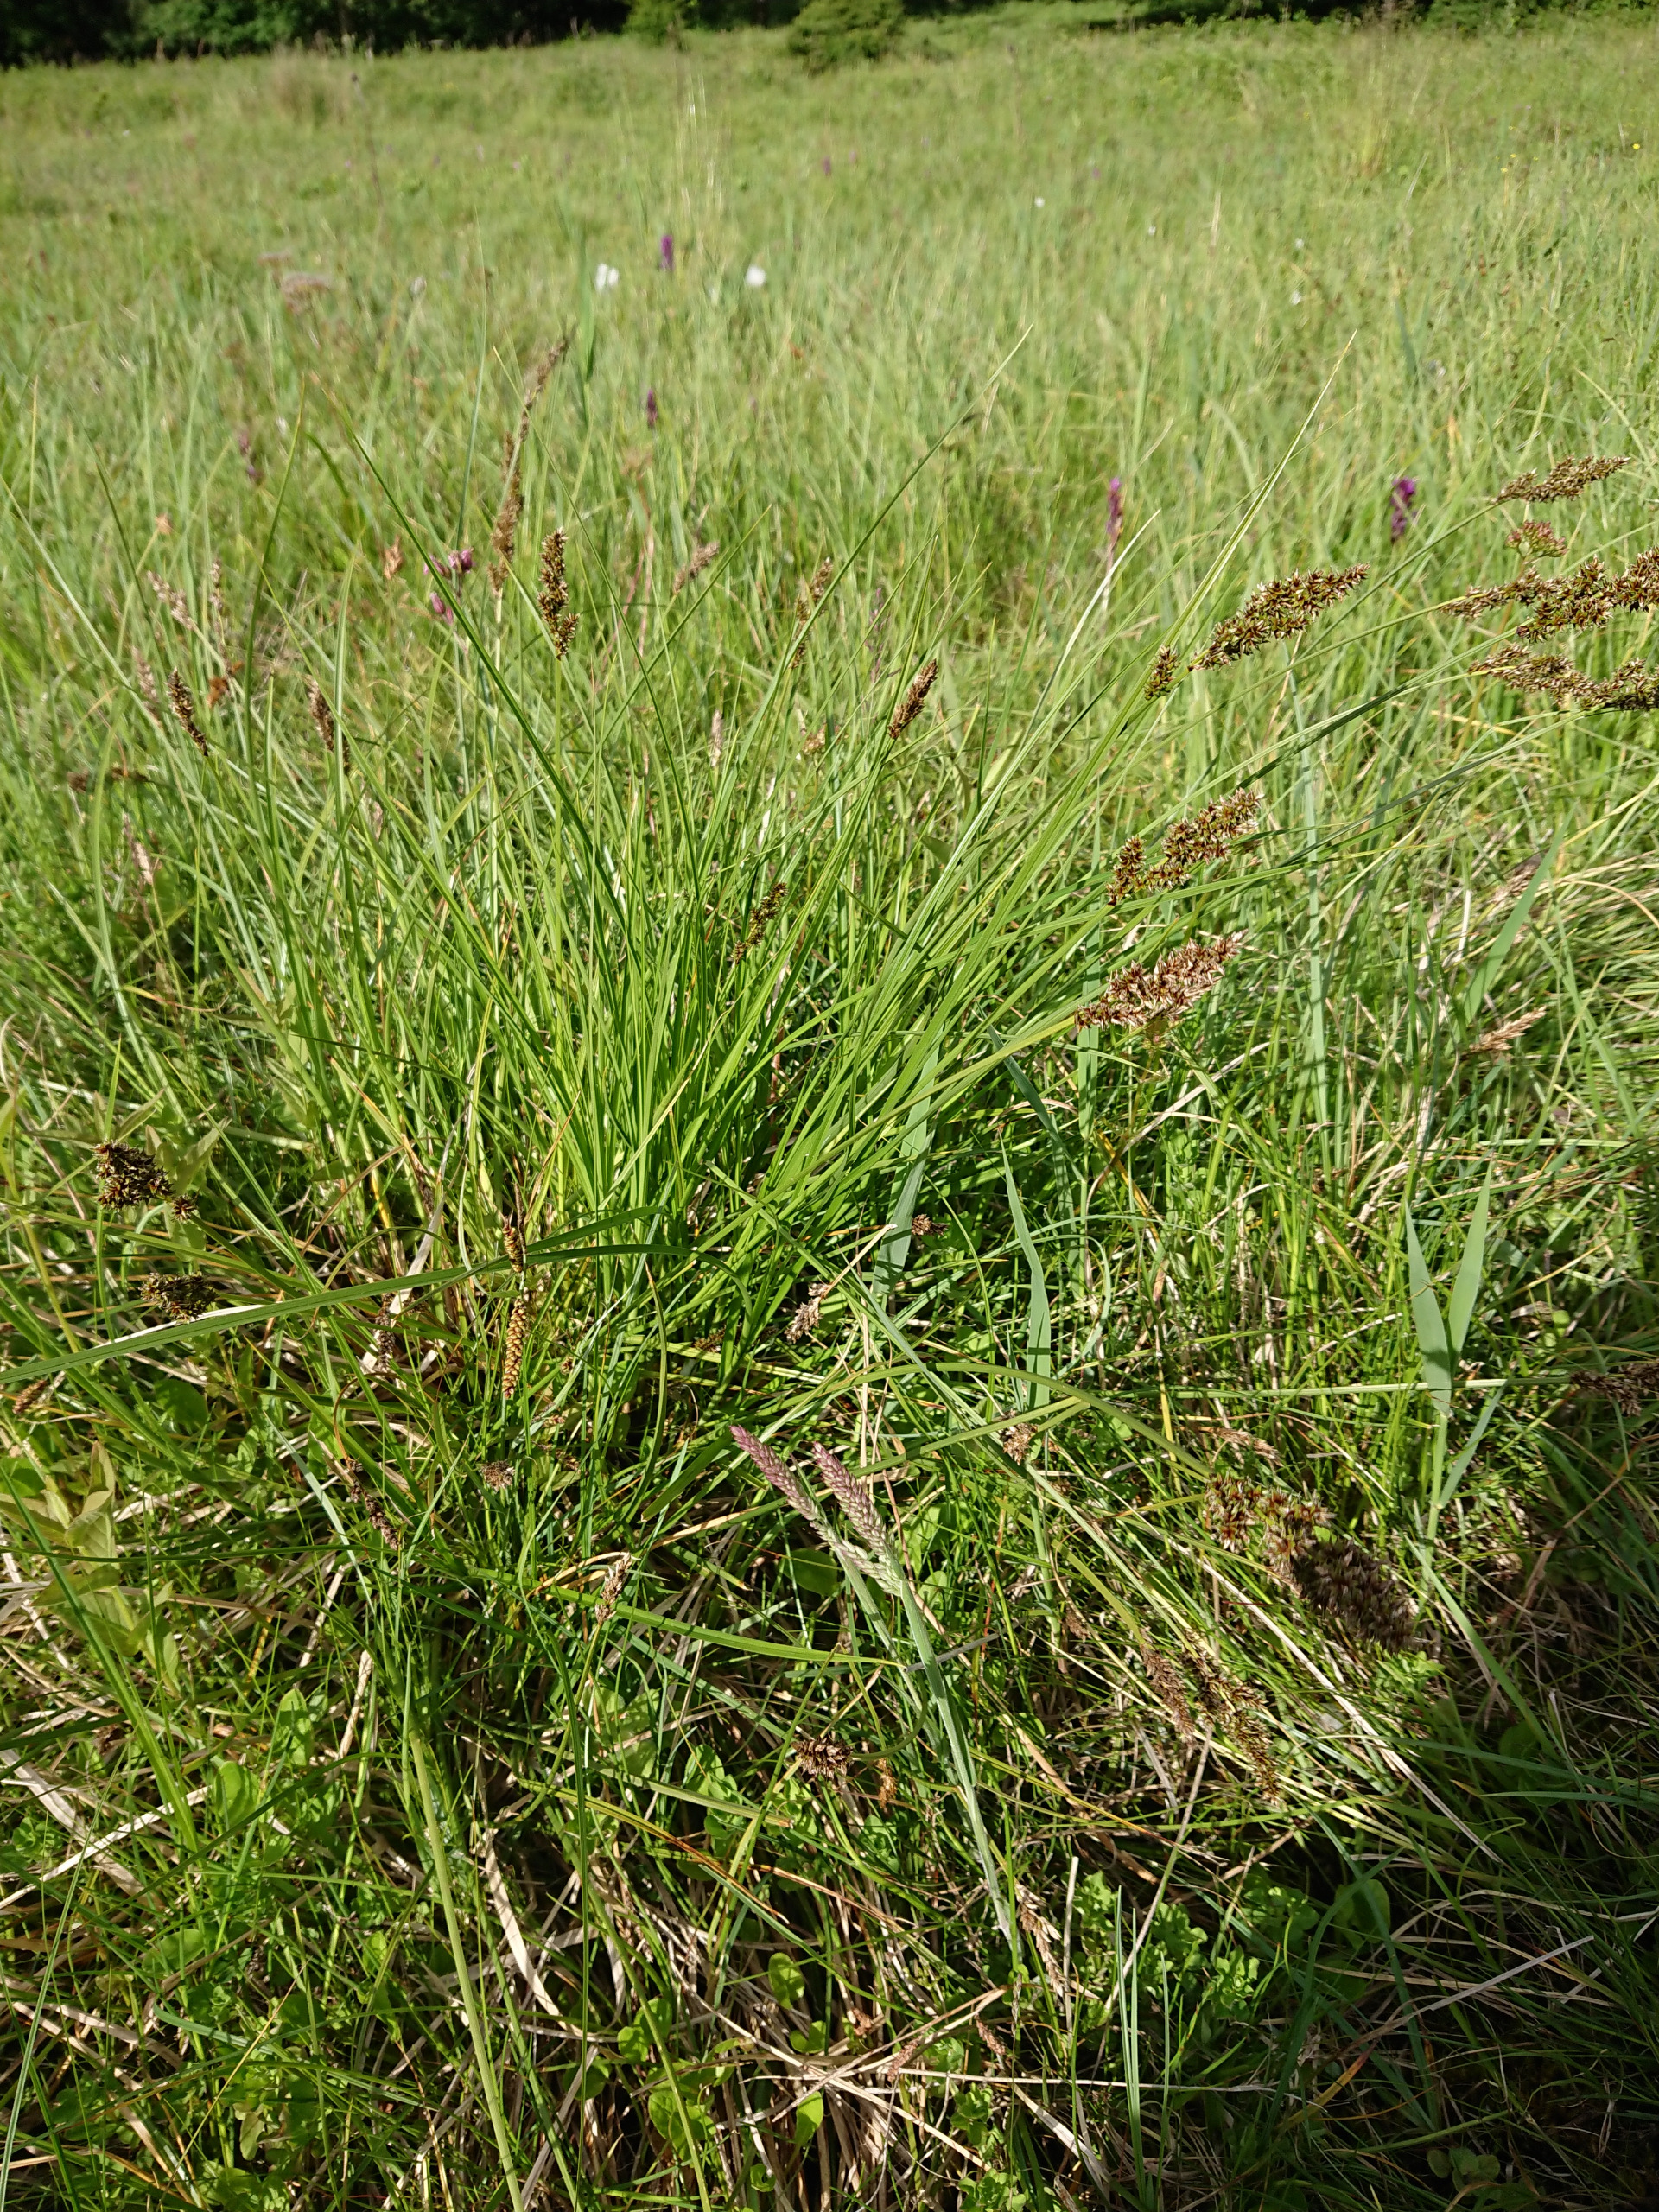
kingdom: Plantae
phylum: Tracheophyta
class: Liliopsida
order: Poales
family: Cyperaceae
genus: Carex
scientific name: Carex paniculata
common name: Top-star
